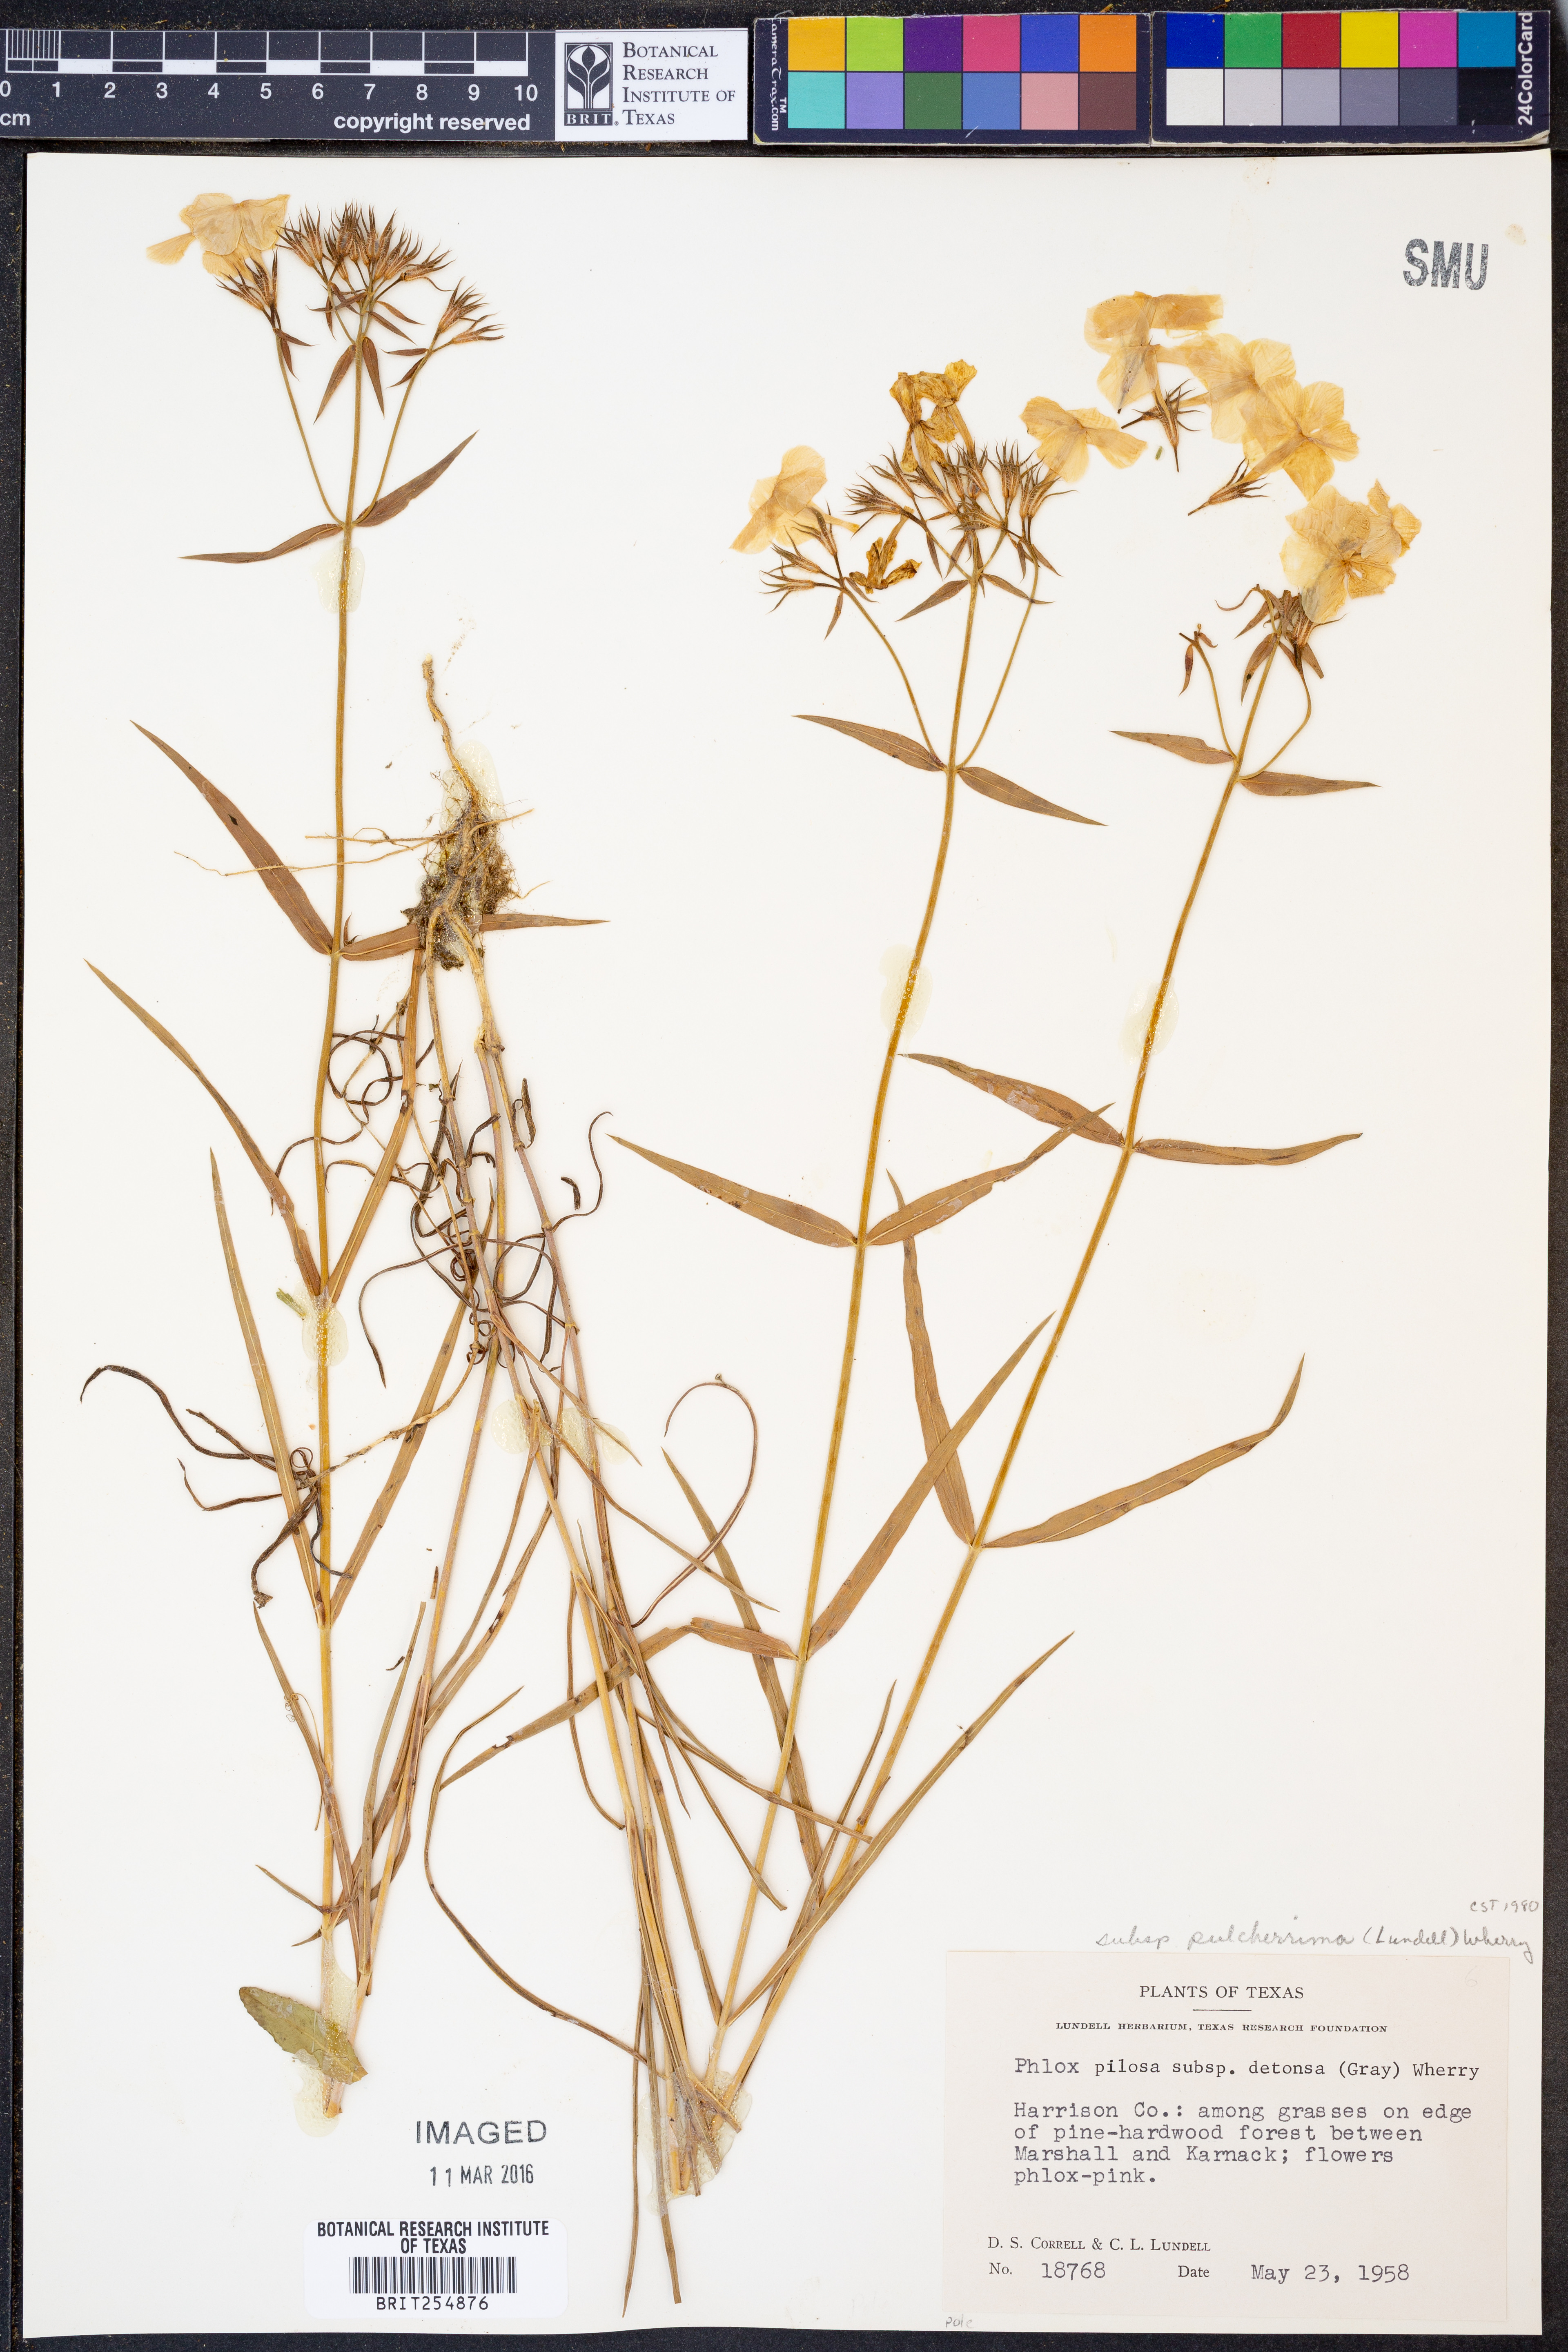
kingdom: Plantae
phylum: Tracheophyta
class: Magnoliopsida
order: Ericales
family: Polemoniaceae
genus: Phlox
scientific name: Phlox pilosa
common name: Prairie phlox
